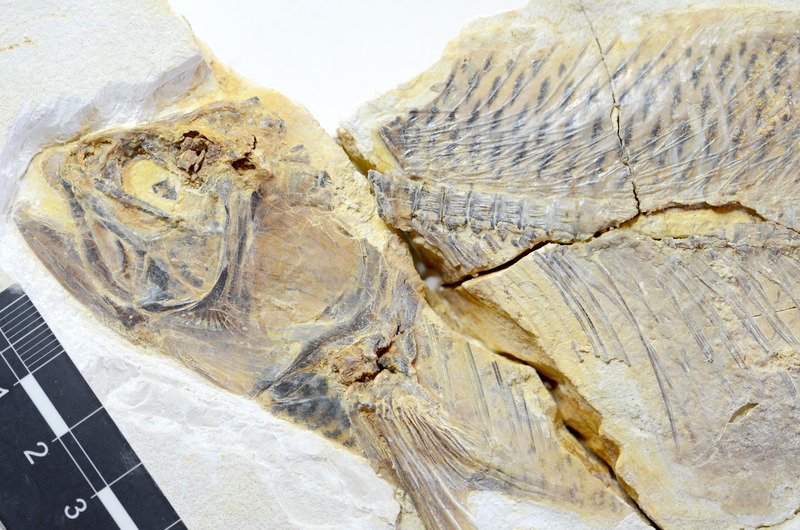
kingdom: Animalia
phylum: Chordata
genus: Thrissops
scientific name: Thrissops formosus
